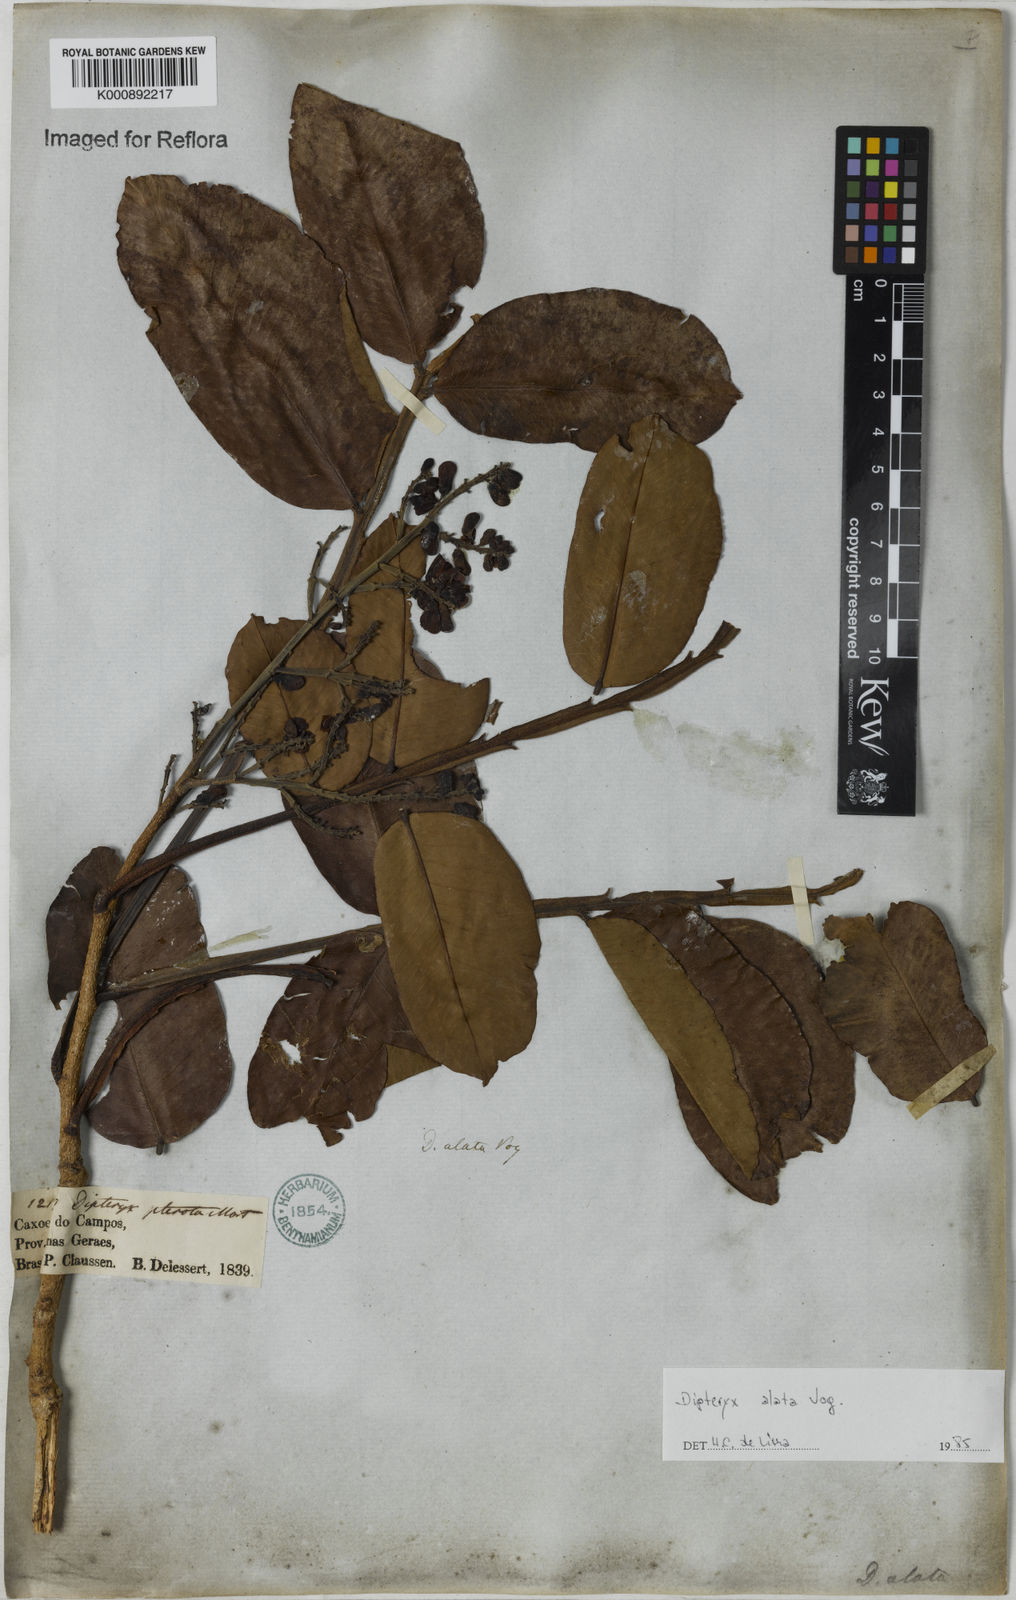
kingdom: Plantae
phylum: Tracheophyta
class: Magnoliopsida
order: Fabales
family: Fabaceae
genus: Dipteryx
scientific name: Dipteryx alata
